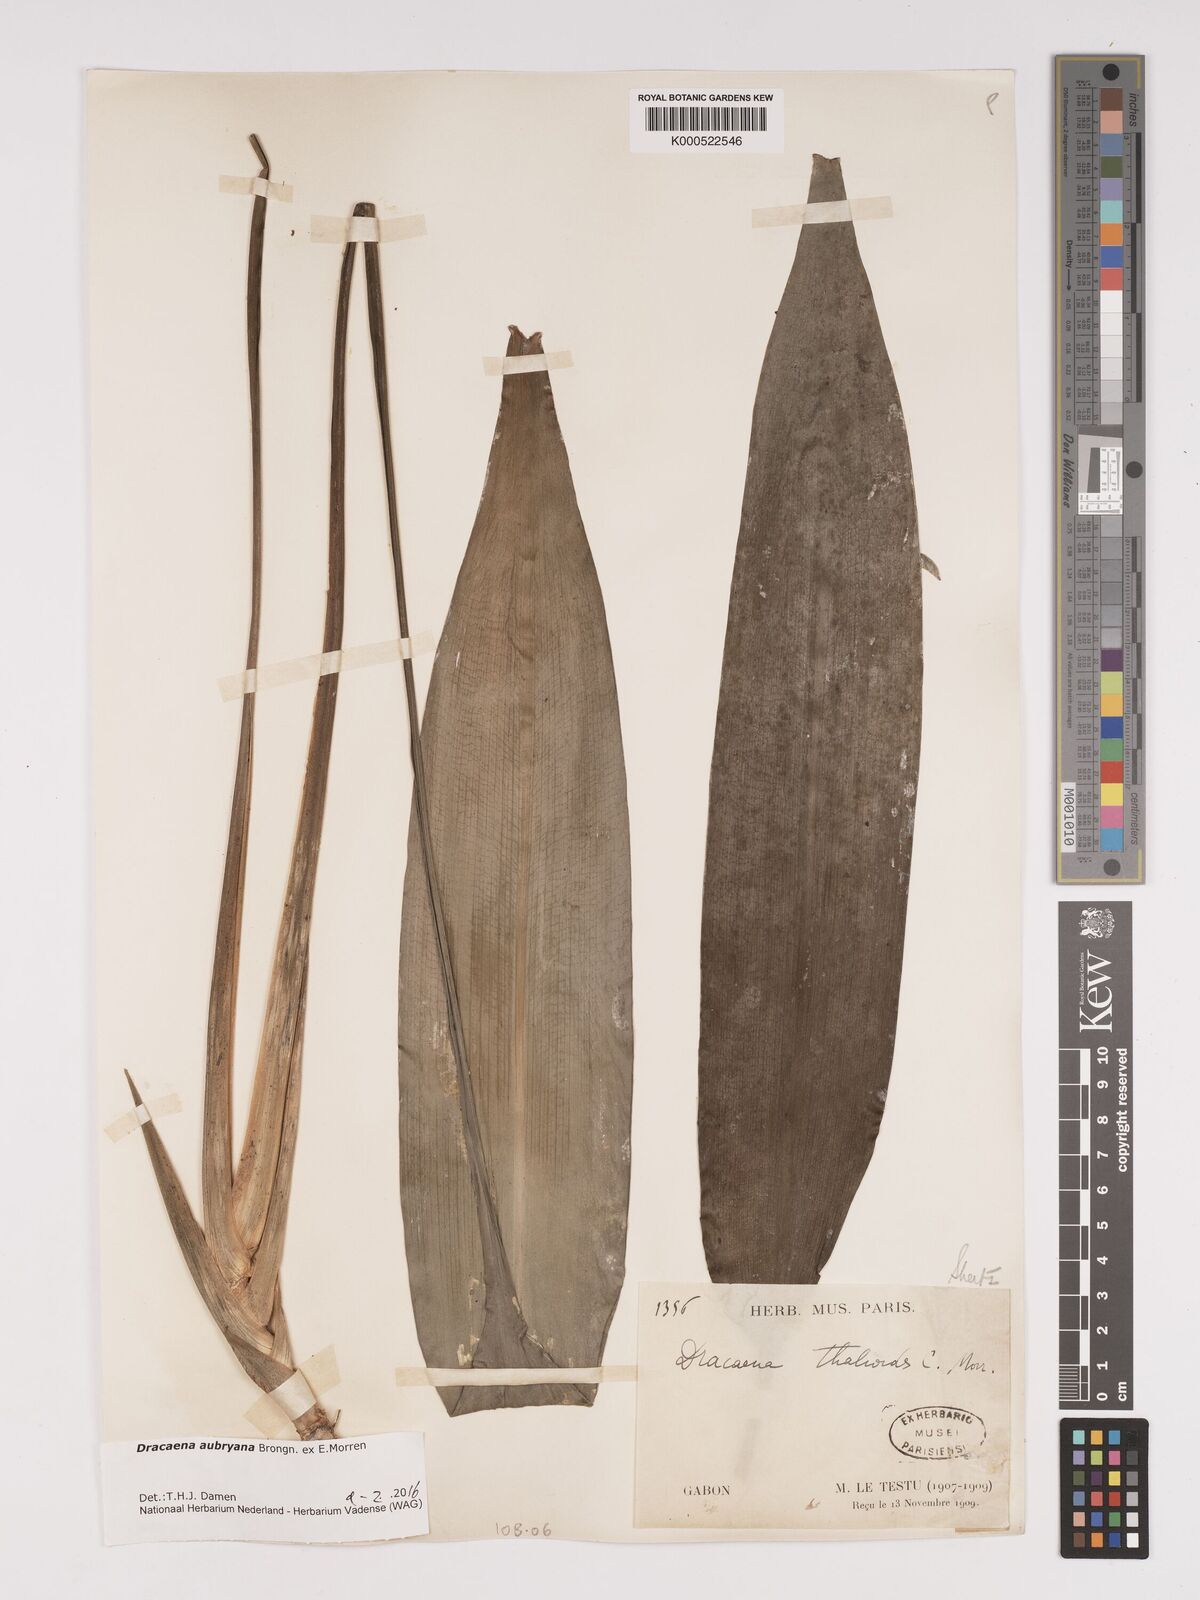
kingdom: Plantae
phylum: Tracheophyta
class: Liliopsida
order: Asparagales
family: Asparagaceae
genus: Dracaena
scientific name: Dracaena aubryana
